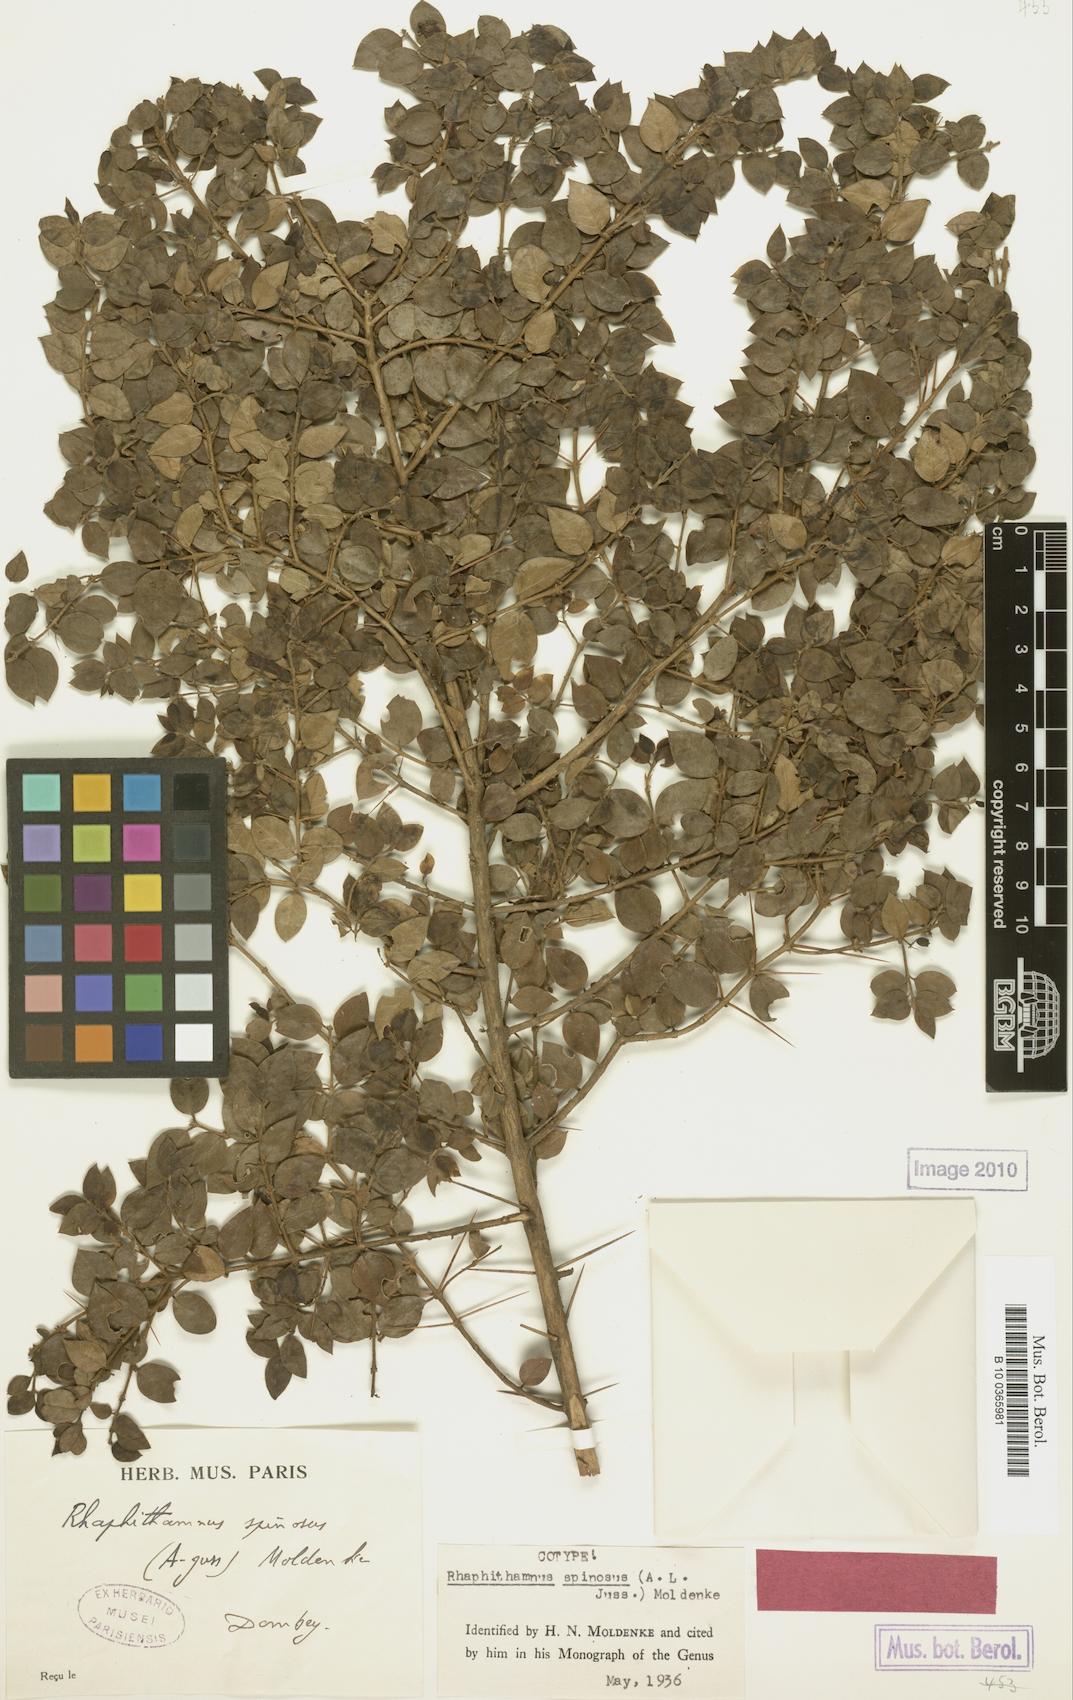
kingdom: Plantae
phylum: Tracheophyta
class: Magnoliopsida
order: Lamiales
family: Verbenaceae
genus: Rhaphithamnus
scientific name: Rhaphithamnus spinosus
